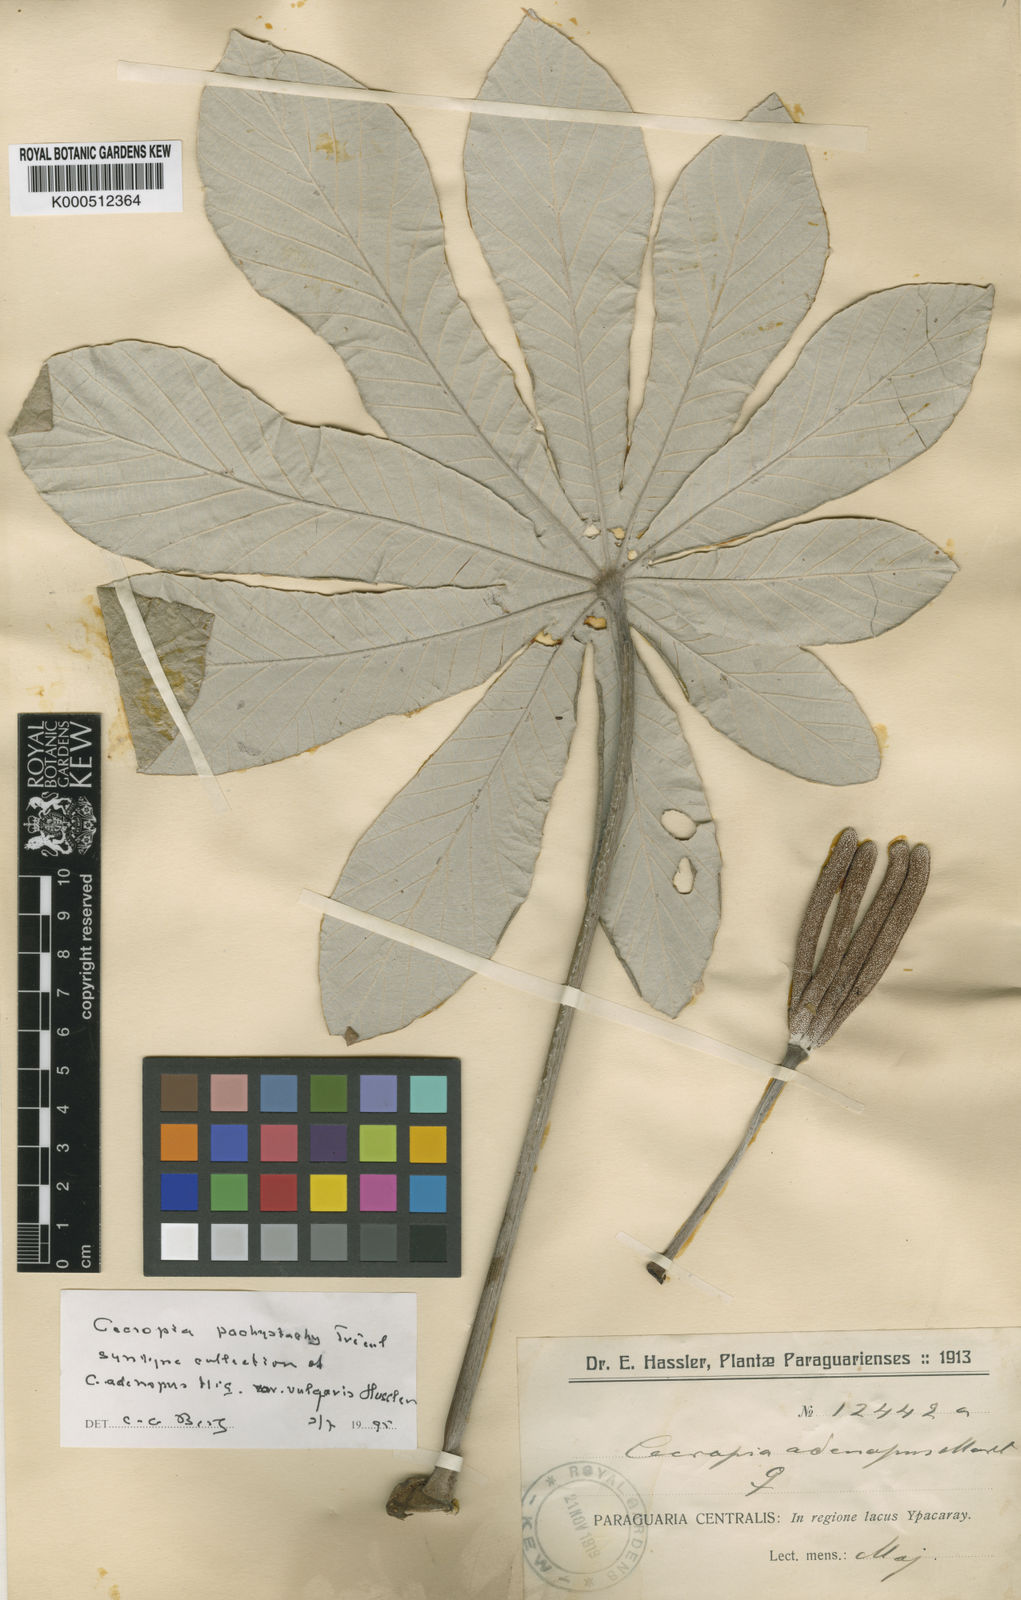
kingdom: Plantae
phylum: Tracheophyta
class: Magnoliopsida
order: Rosales
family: Urticaceae
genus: Cecropia
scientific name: Cecropia
